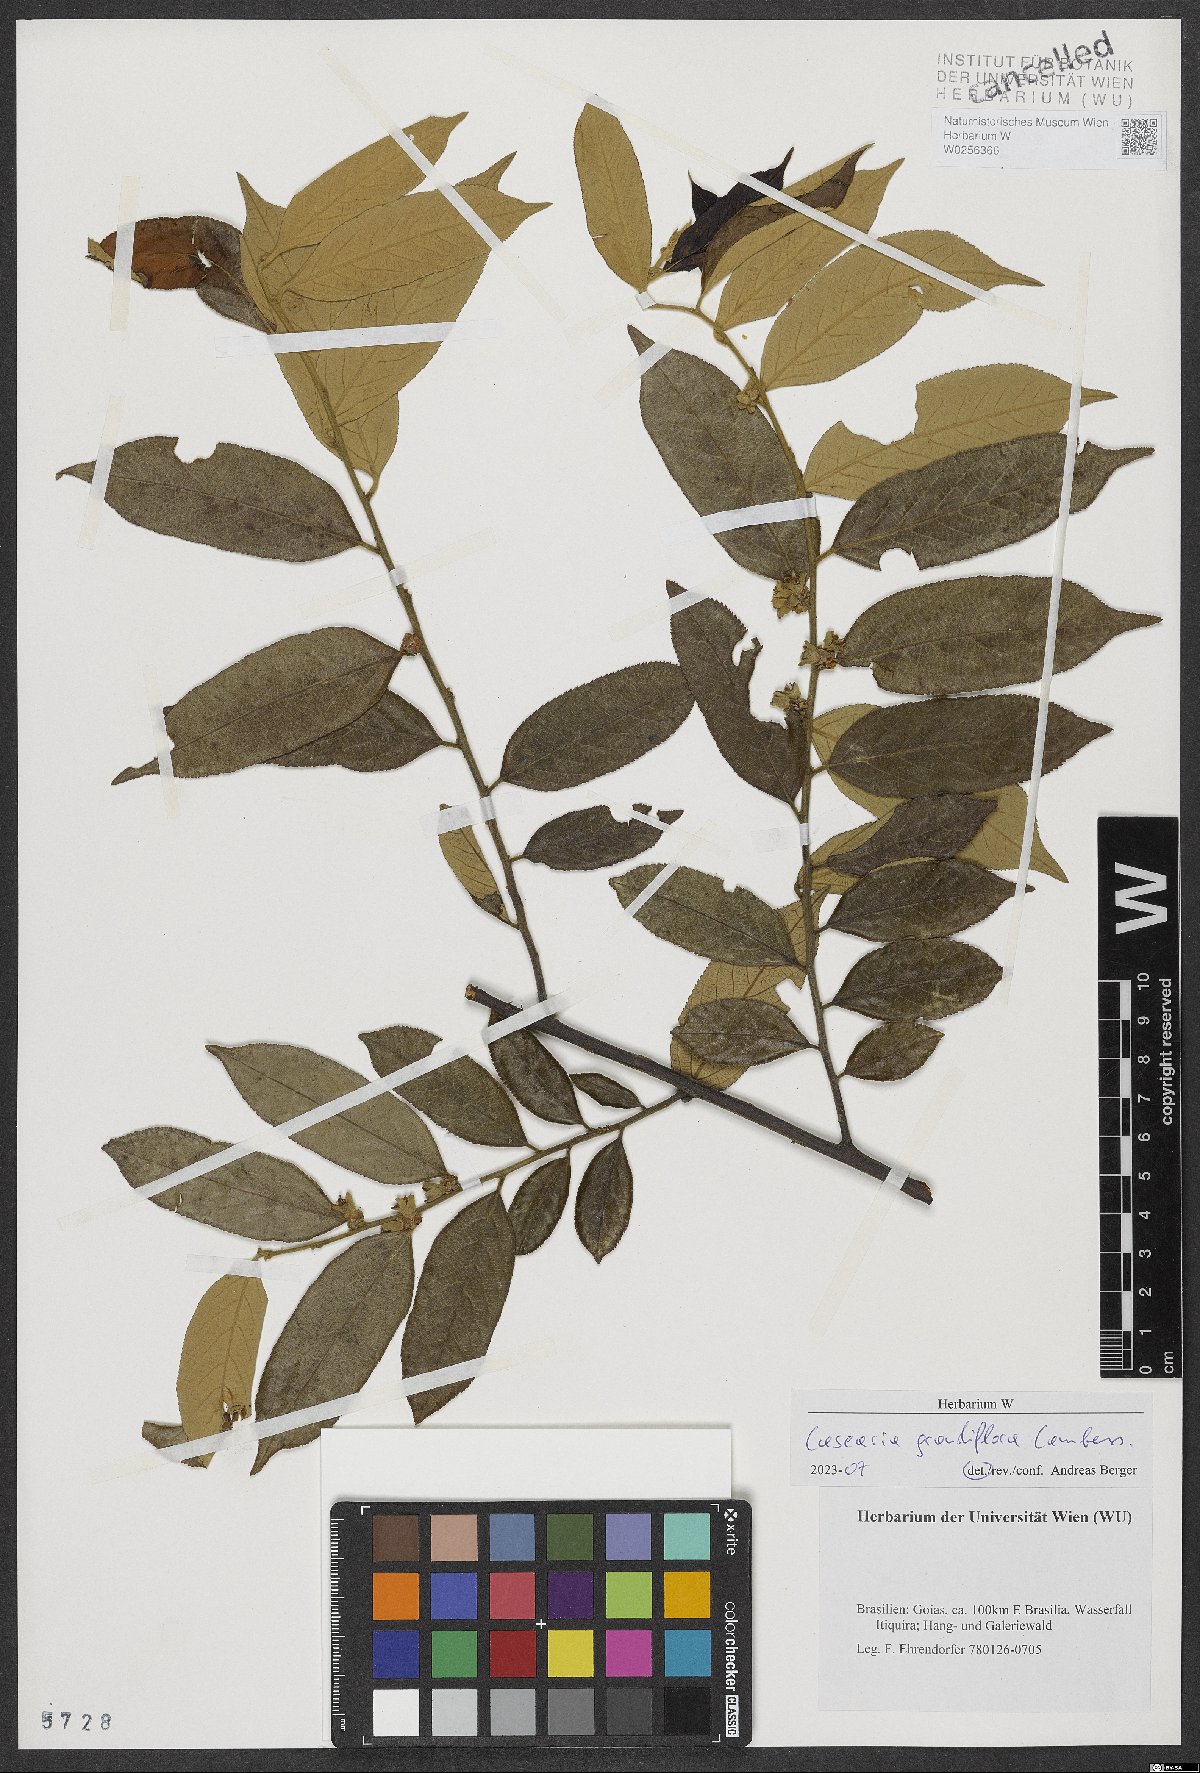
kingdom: Plantae
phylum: Tracheophyta
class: Magnoliopsida
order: Malpighiales
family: Salicaceae
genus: Casearia
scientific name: Casearia grandiflora
